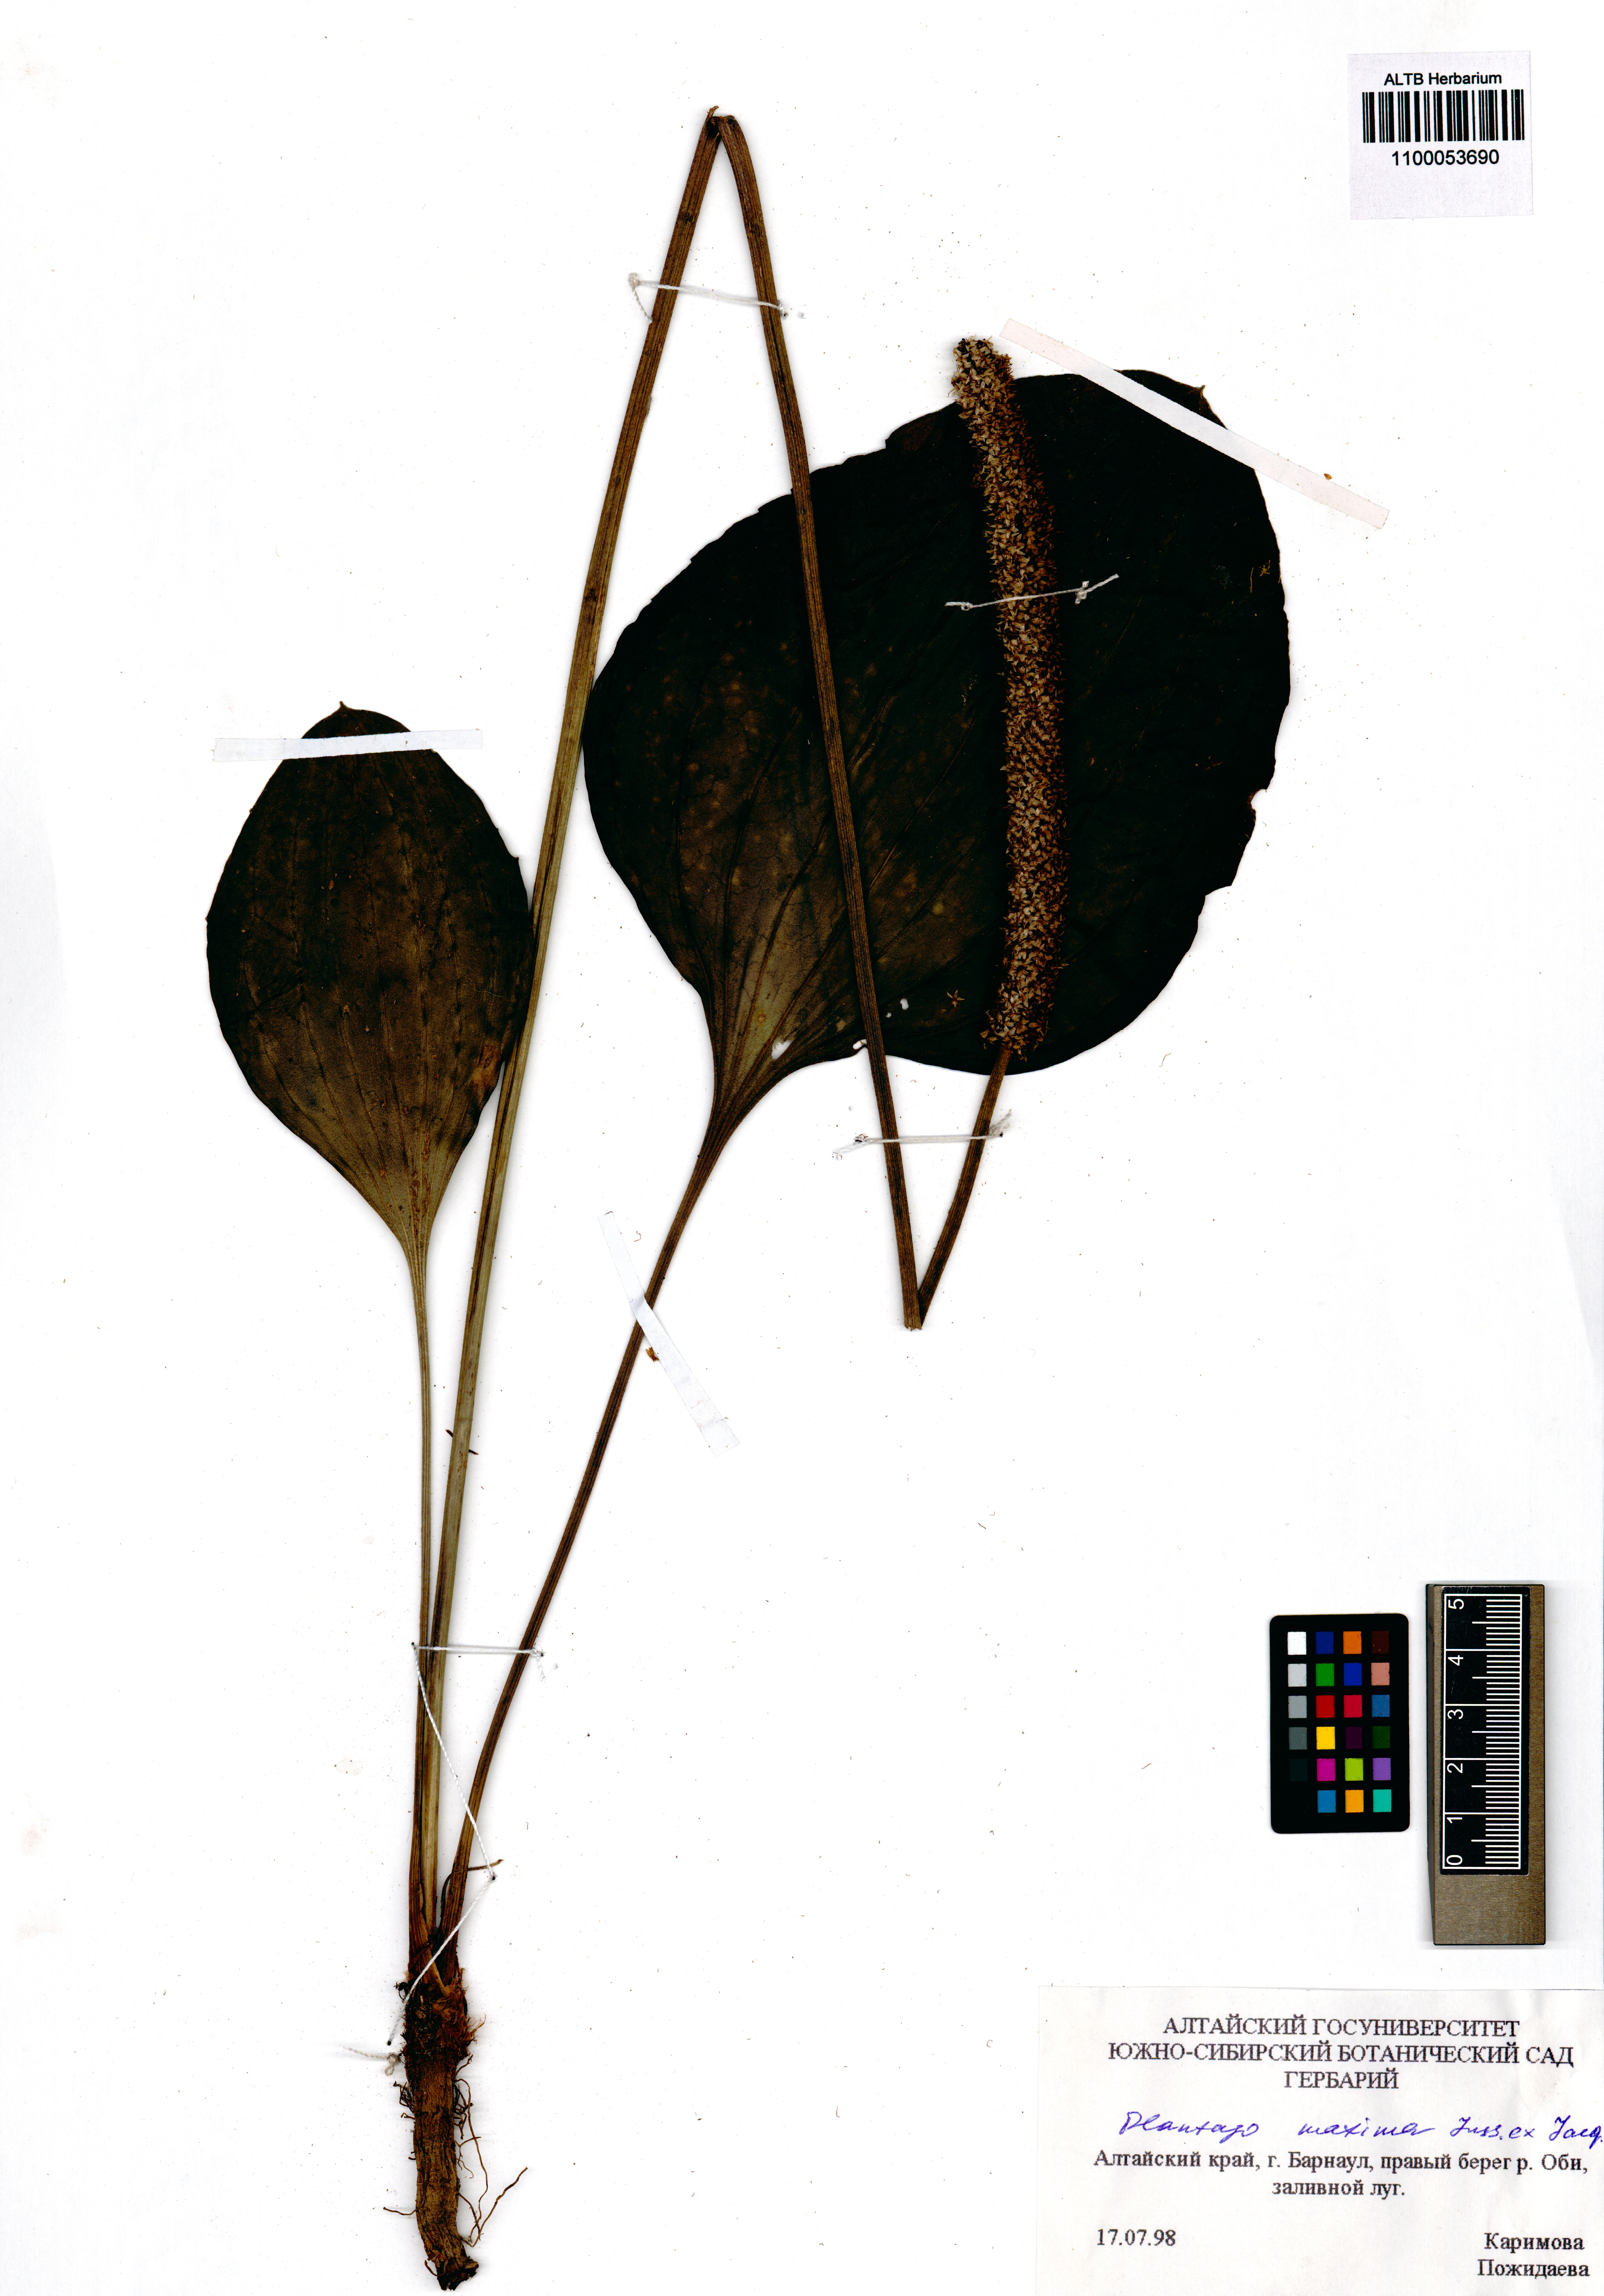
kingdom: Plantae
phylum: Tracheophyta
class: Magnoliopsida
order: Lamiales
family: Plantaginaceae
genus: Plantago
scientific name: Plantago maxima
